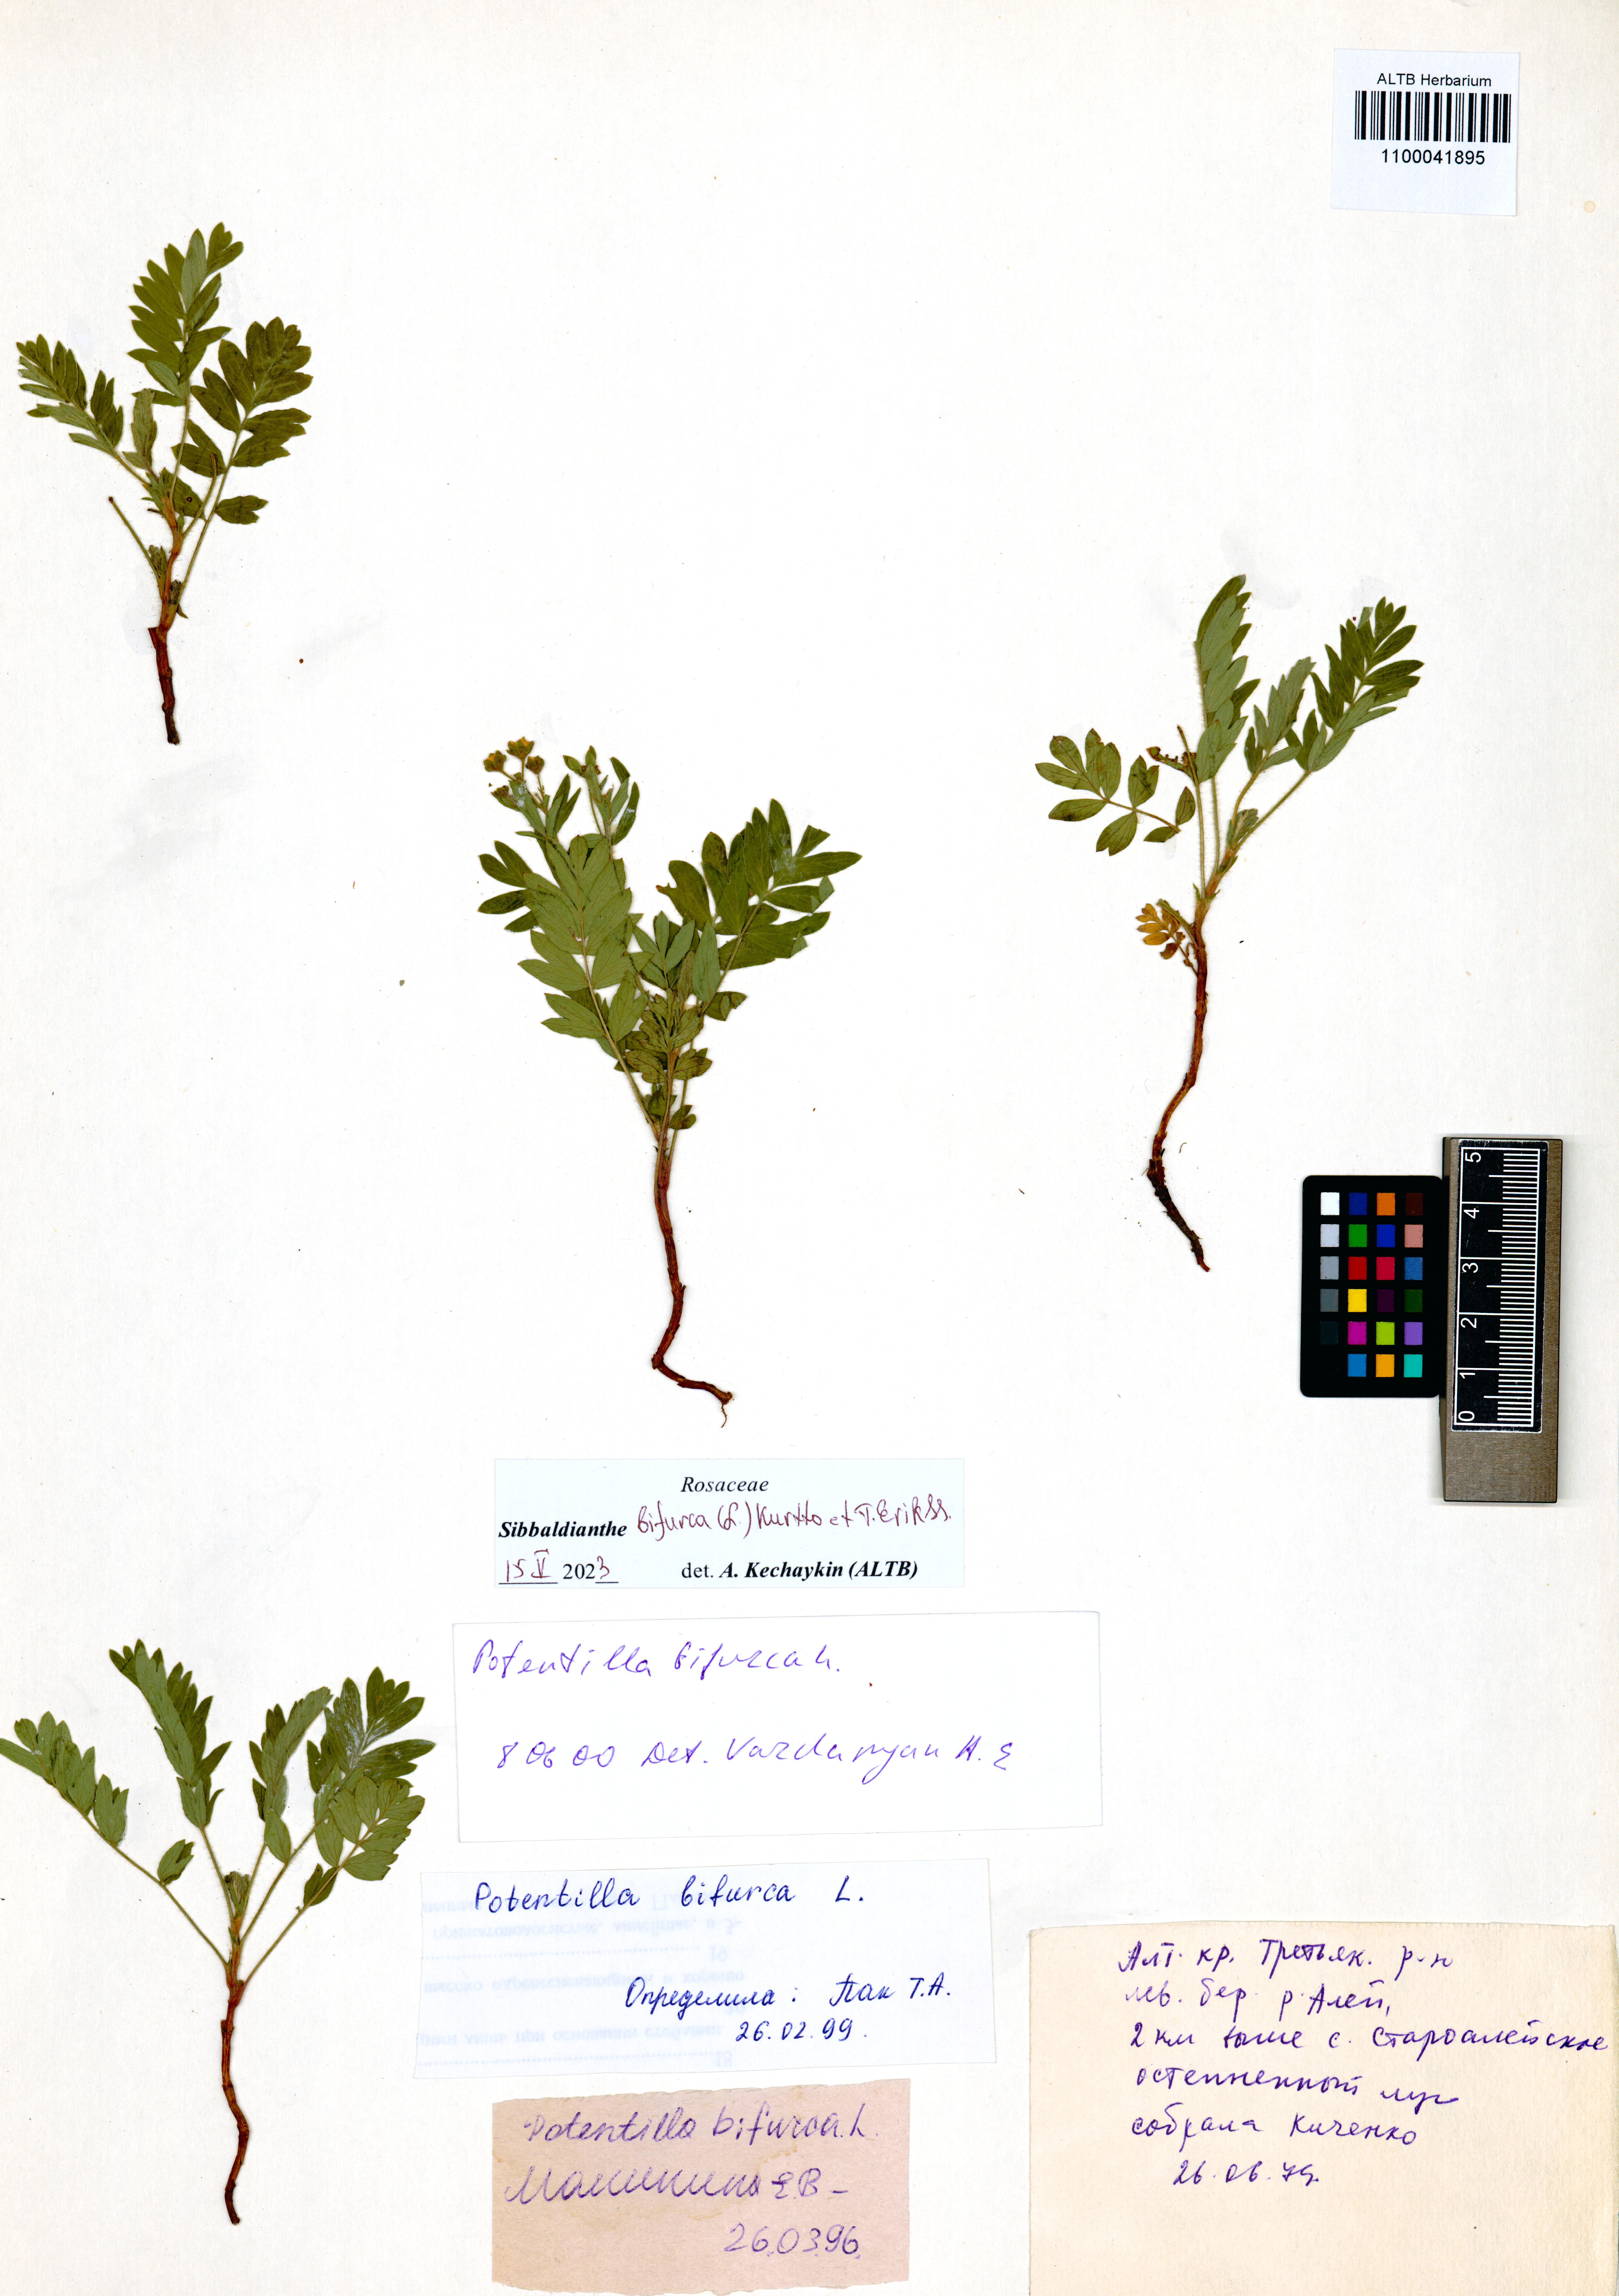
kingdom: Plantae
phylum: Tracheophyta
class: Magnoliopsida
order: Rosales
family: Rosaceae
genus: Sibbaldianthe
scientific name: Sibbaldianthe bifurca
